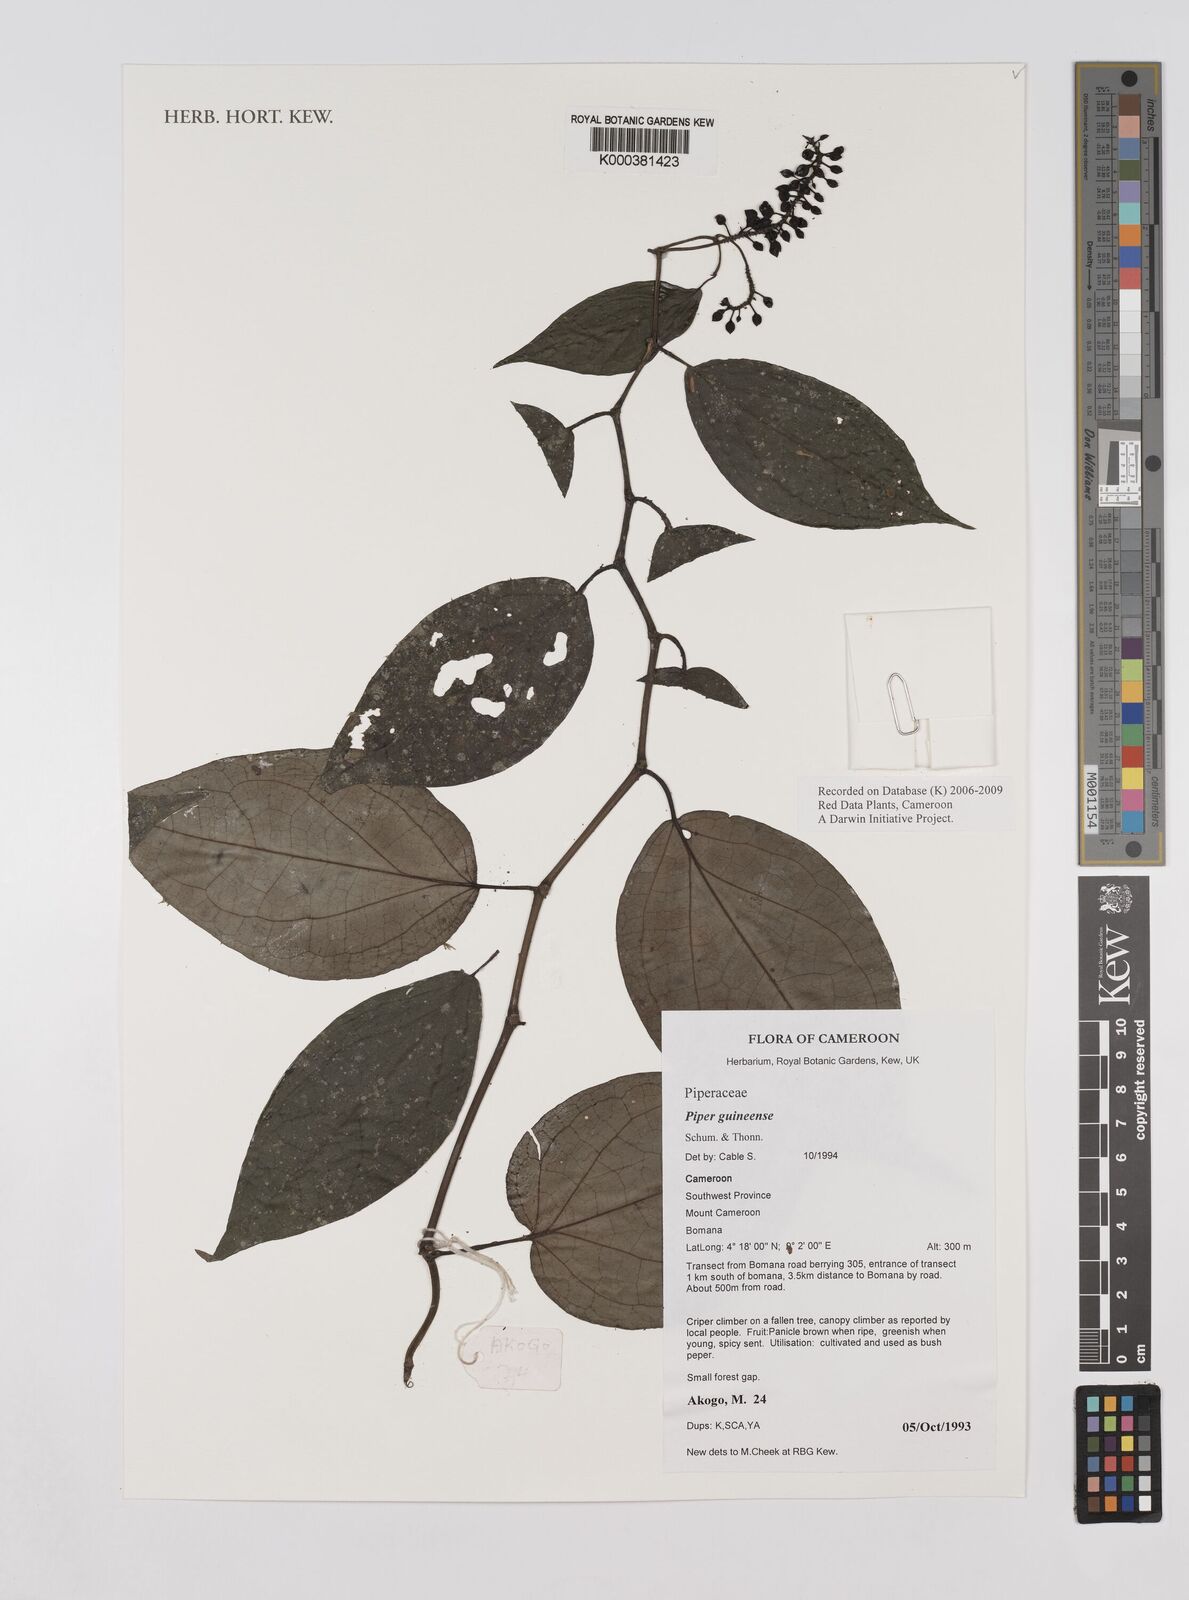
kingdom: Plantae
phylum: Tracheophyta
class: Magnoliopsida
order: Piperales
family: Piperaceae
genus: Piper
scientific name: Piper guineense
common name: Benin pepper
